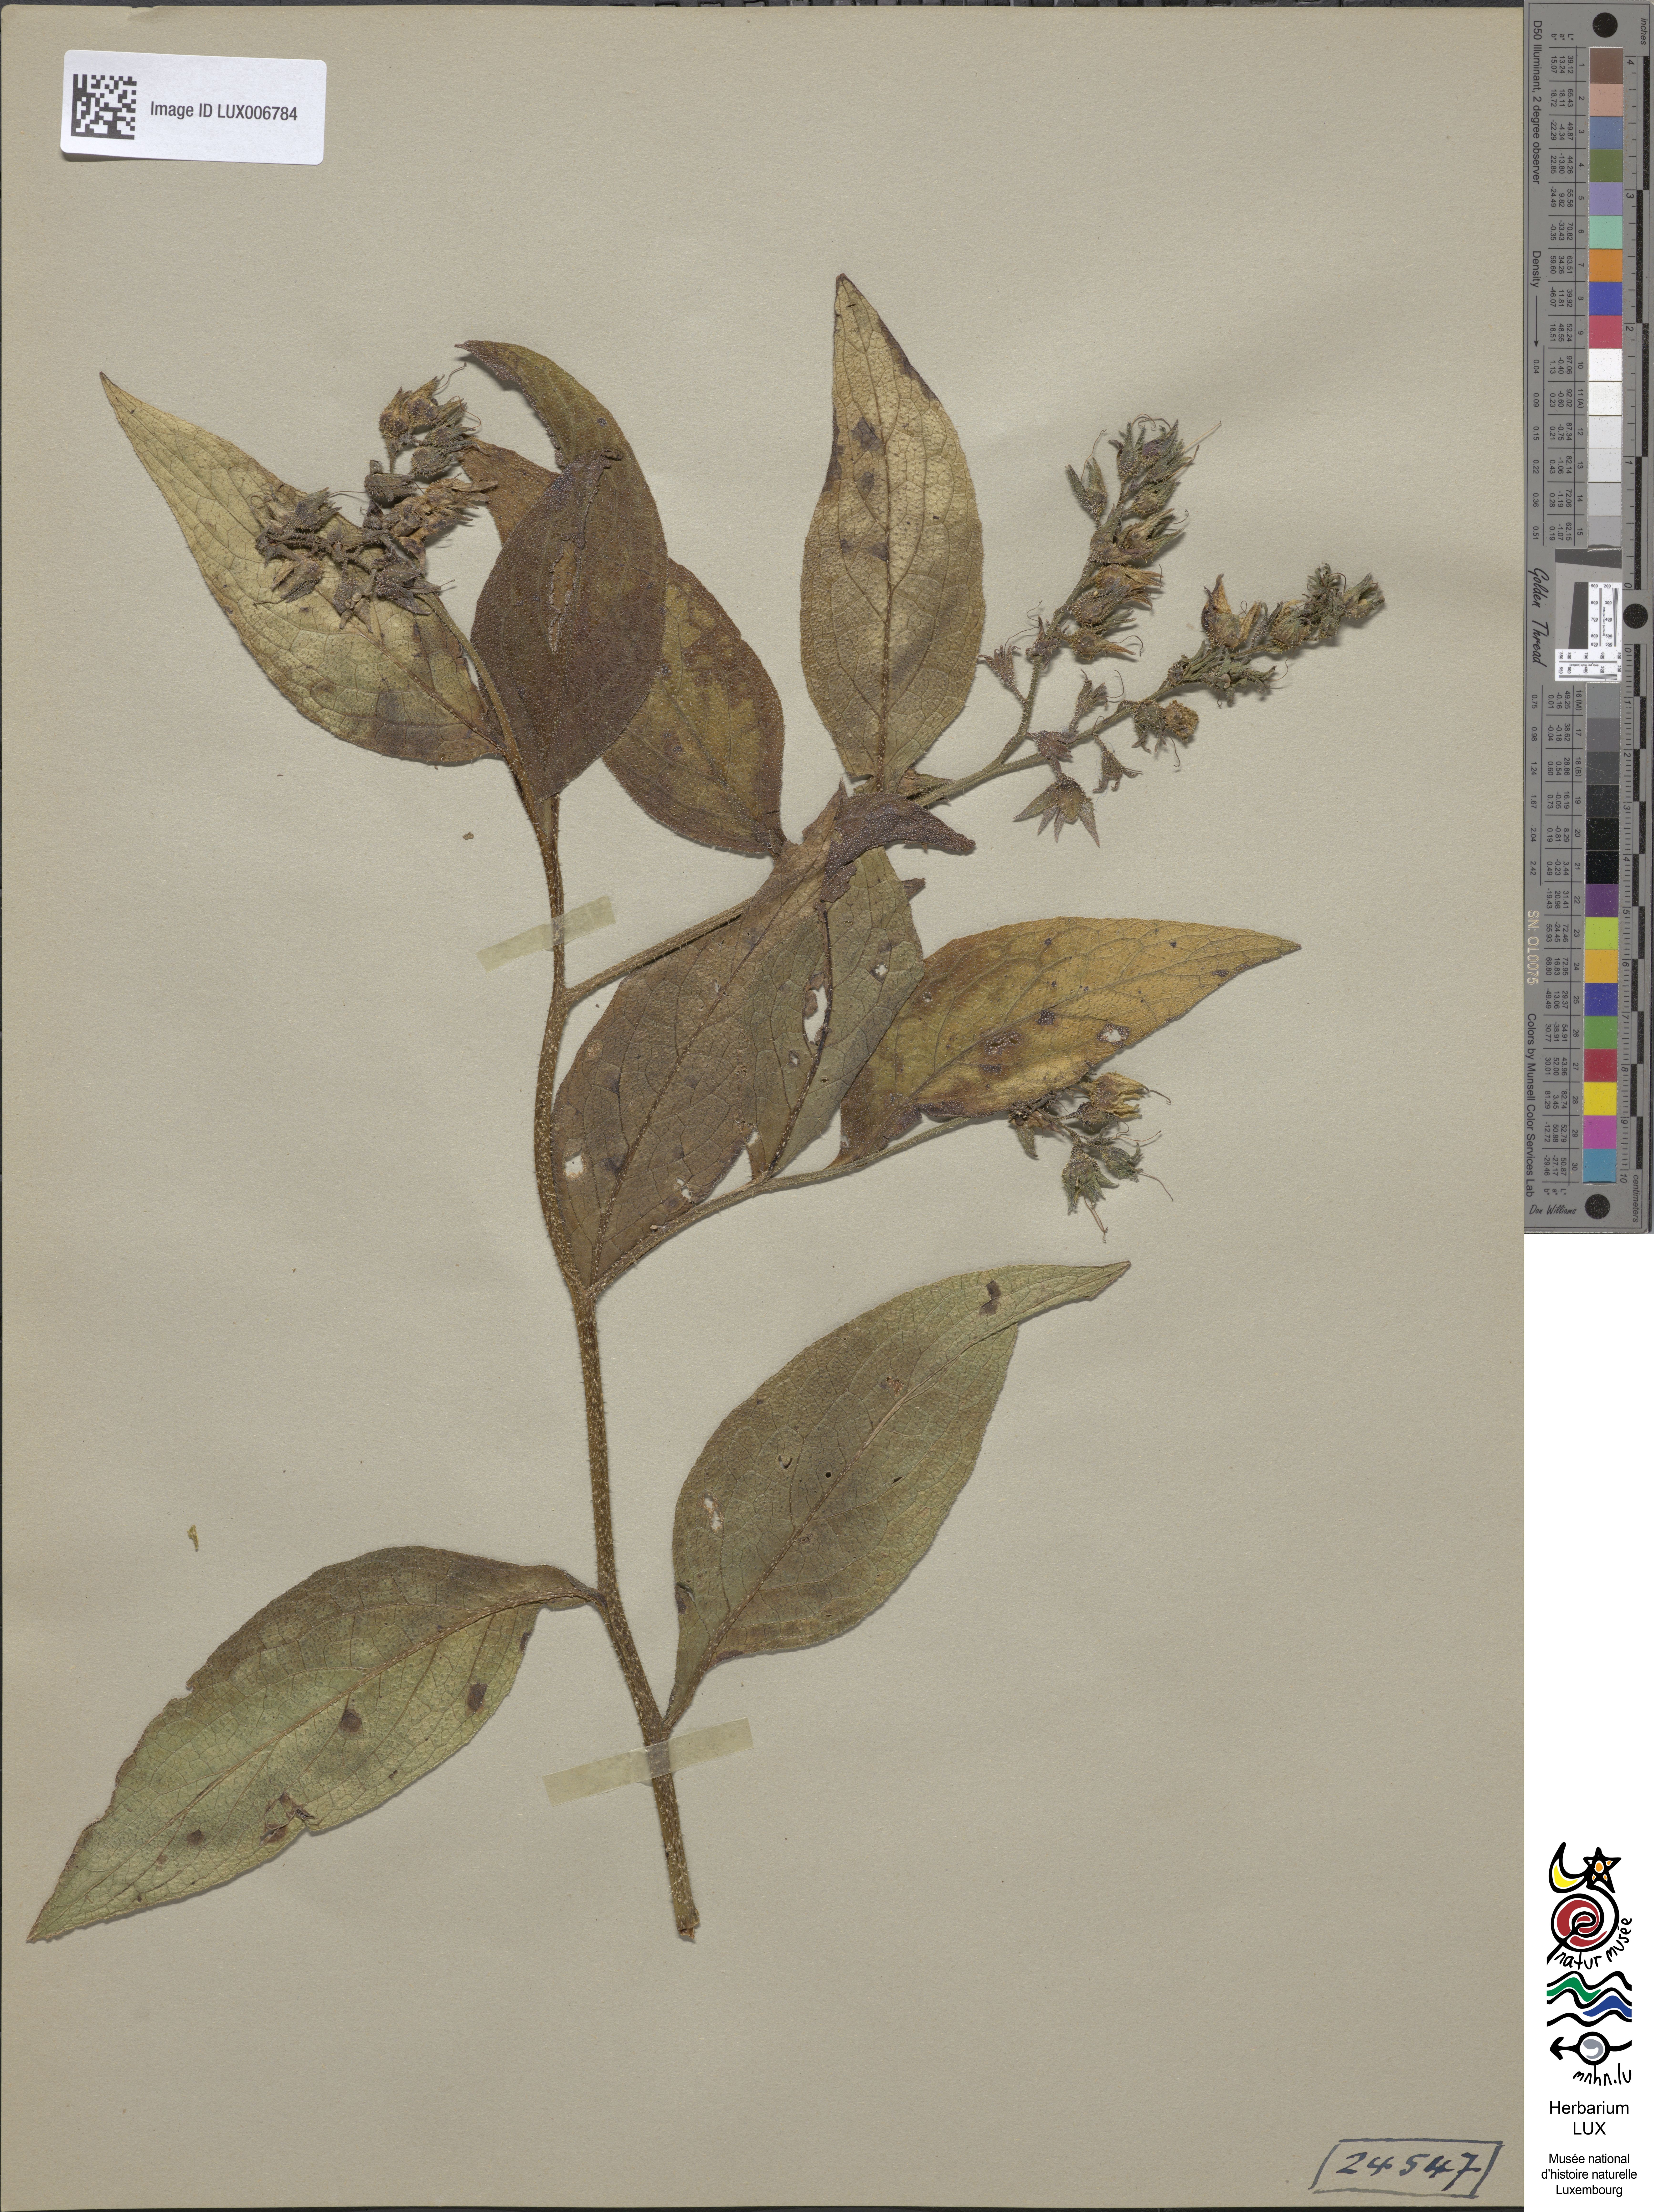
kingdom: Plantae
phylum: Tracheophyta
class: Magnoliopsida
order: Boraginales
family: Boraginaceae
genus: Symphytum
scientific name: Symphytum officinale
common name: Common comfrey
